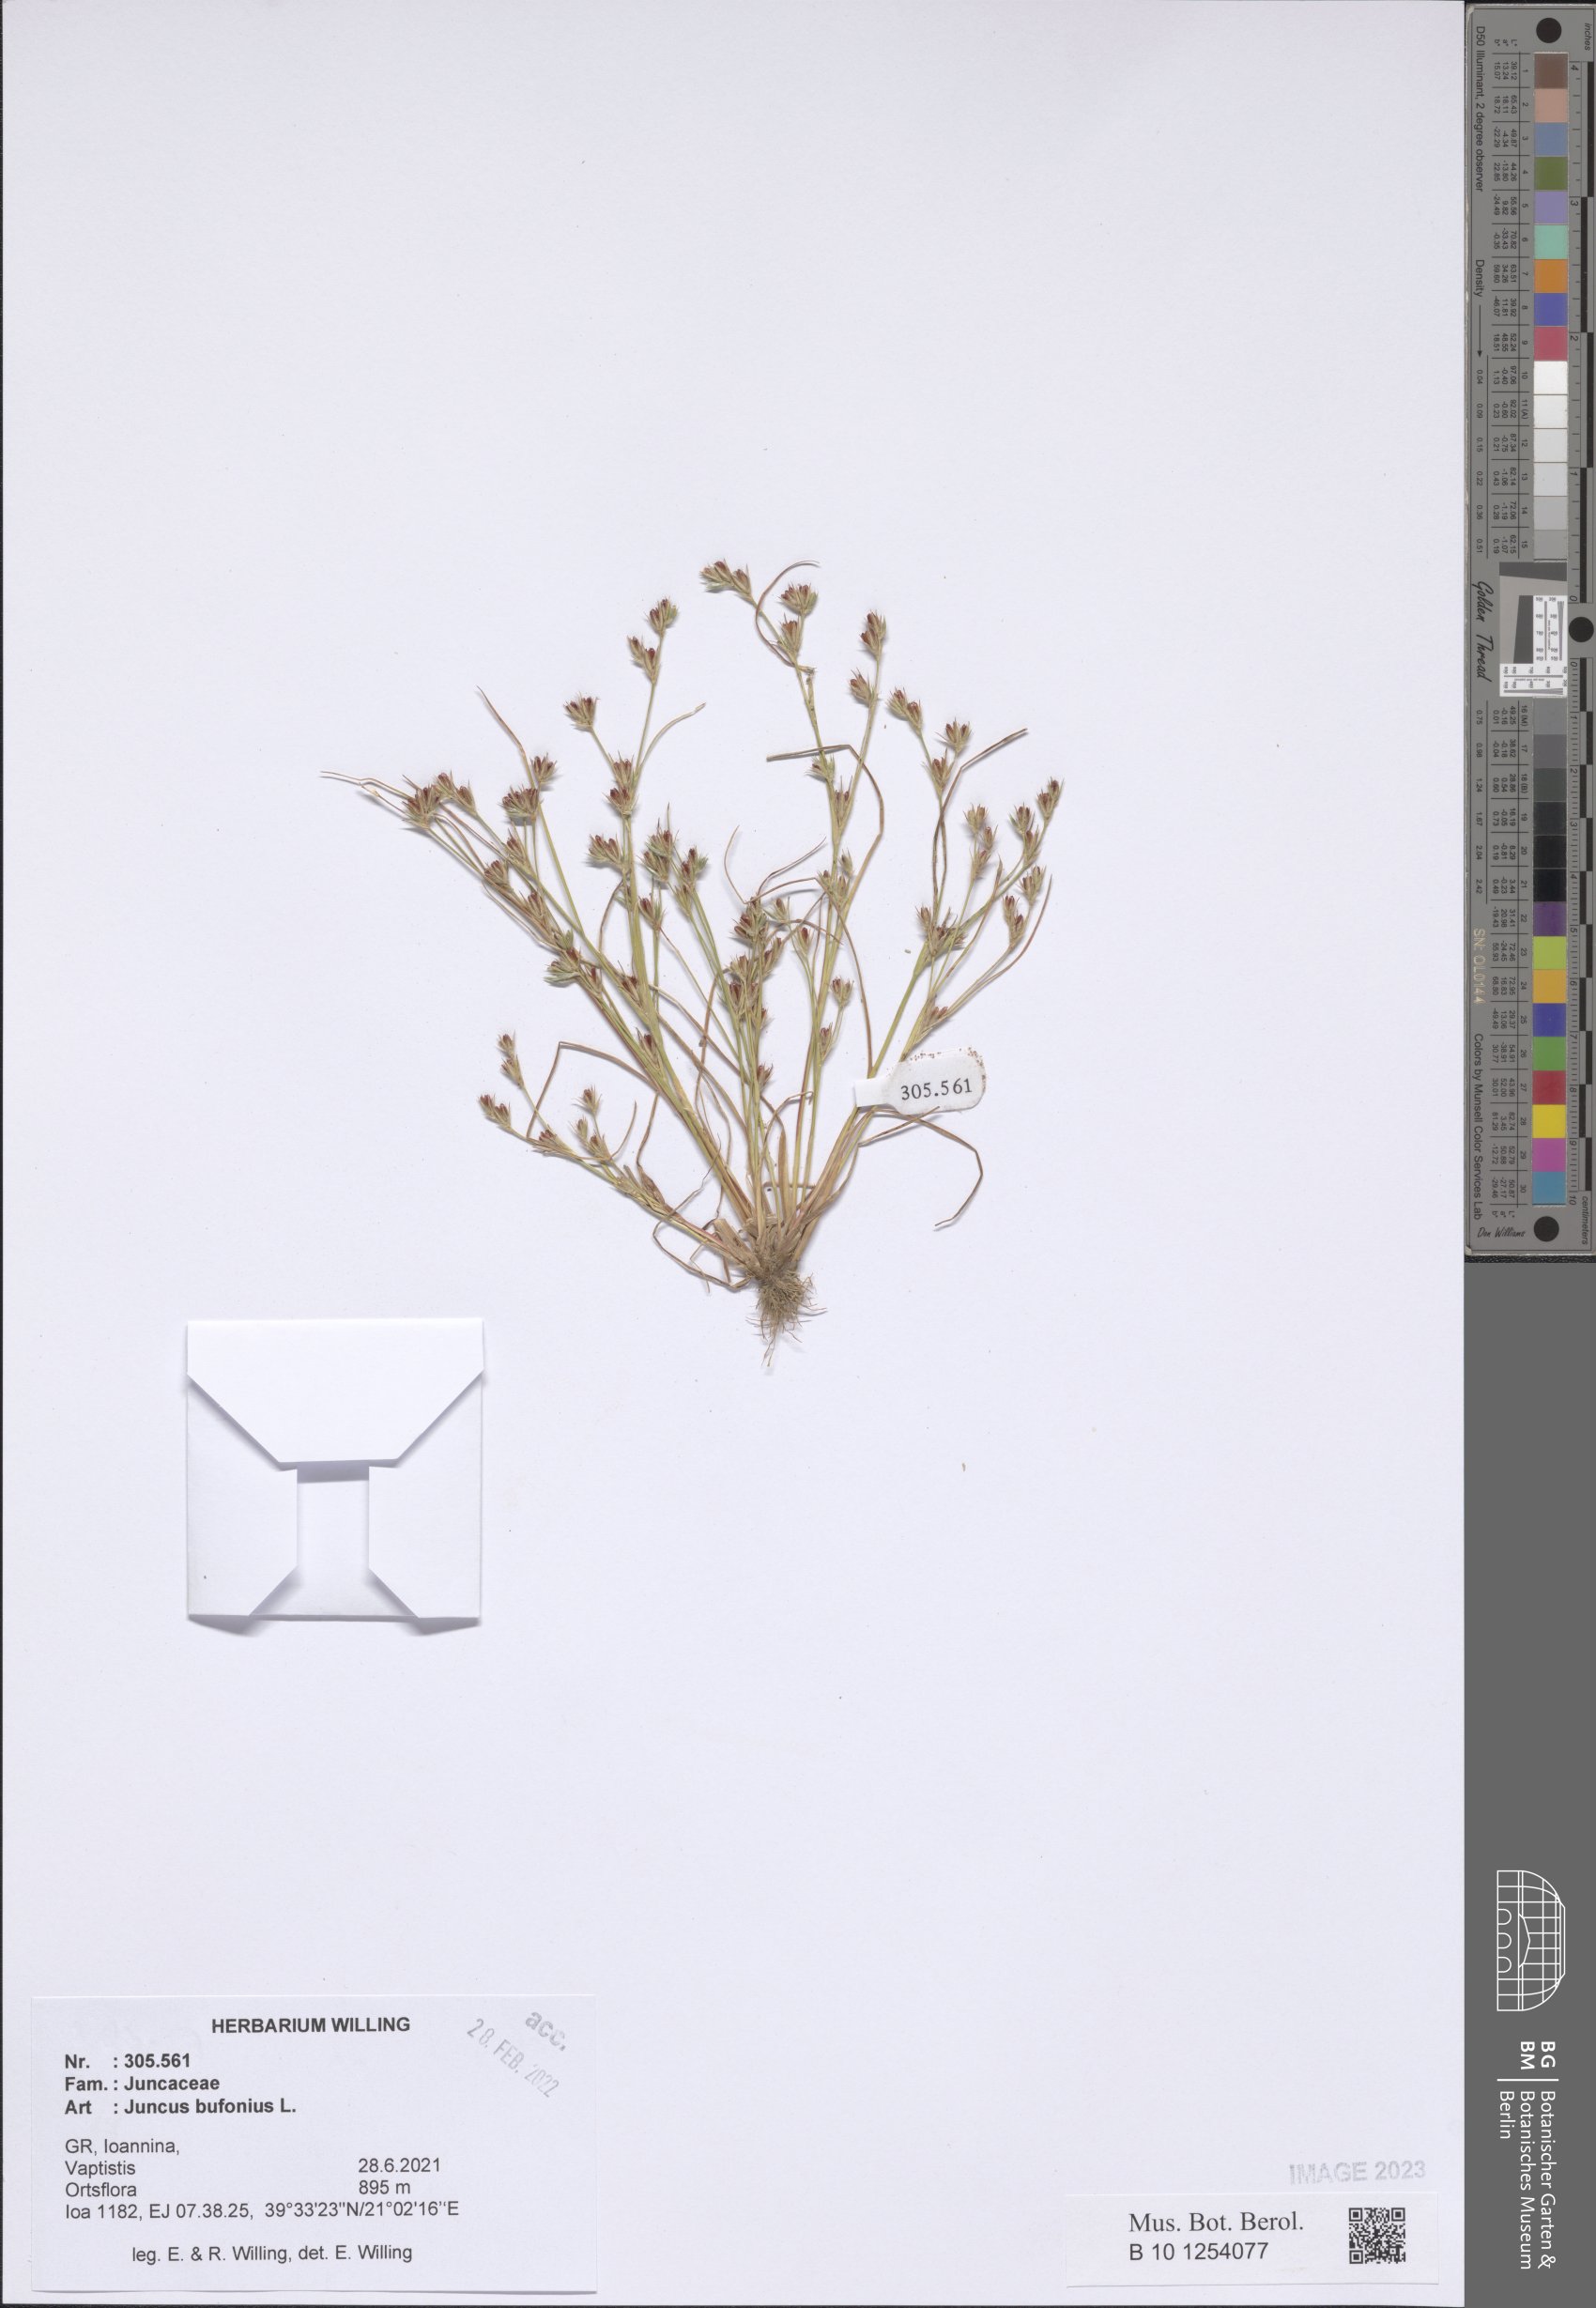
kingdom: Plantae
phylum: Tracheophyta
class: Liliopsida
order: Poales
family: Juncaceae
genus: Juncus
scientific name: Juncus bufonius
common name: Toad rush
